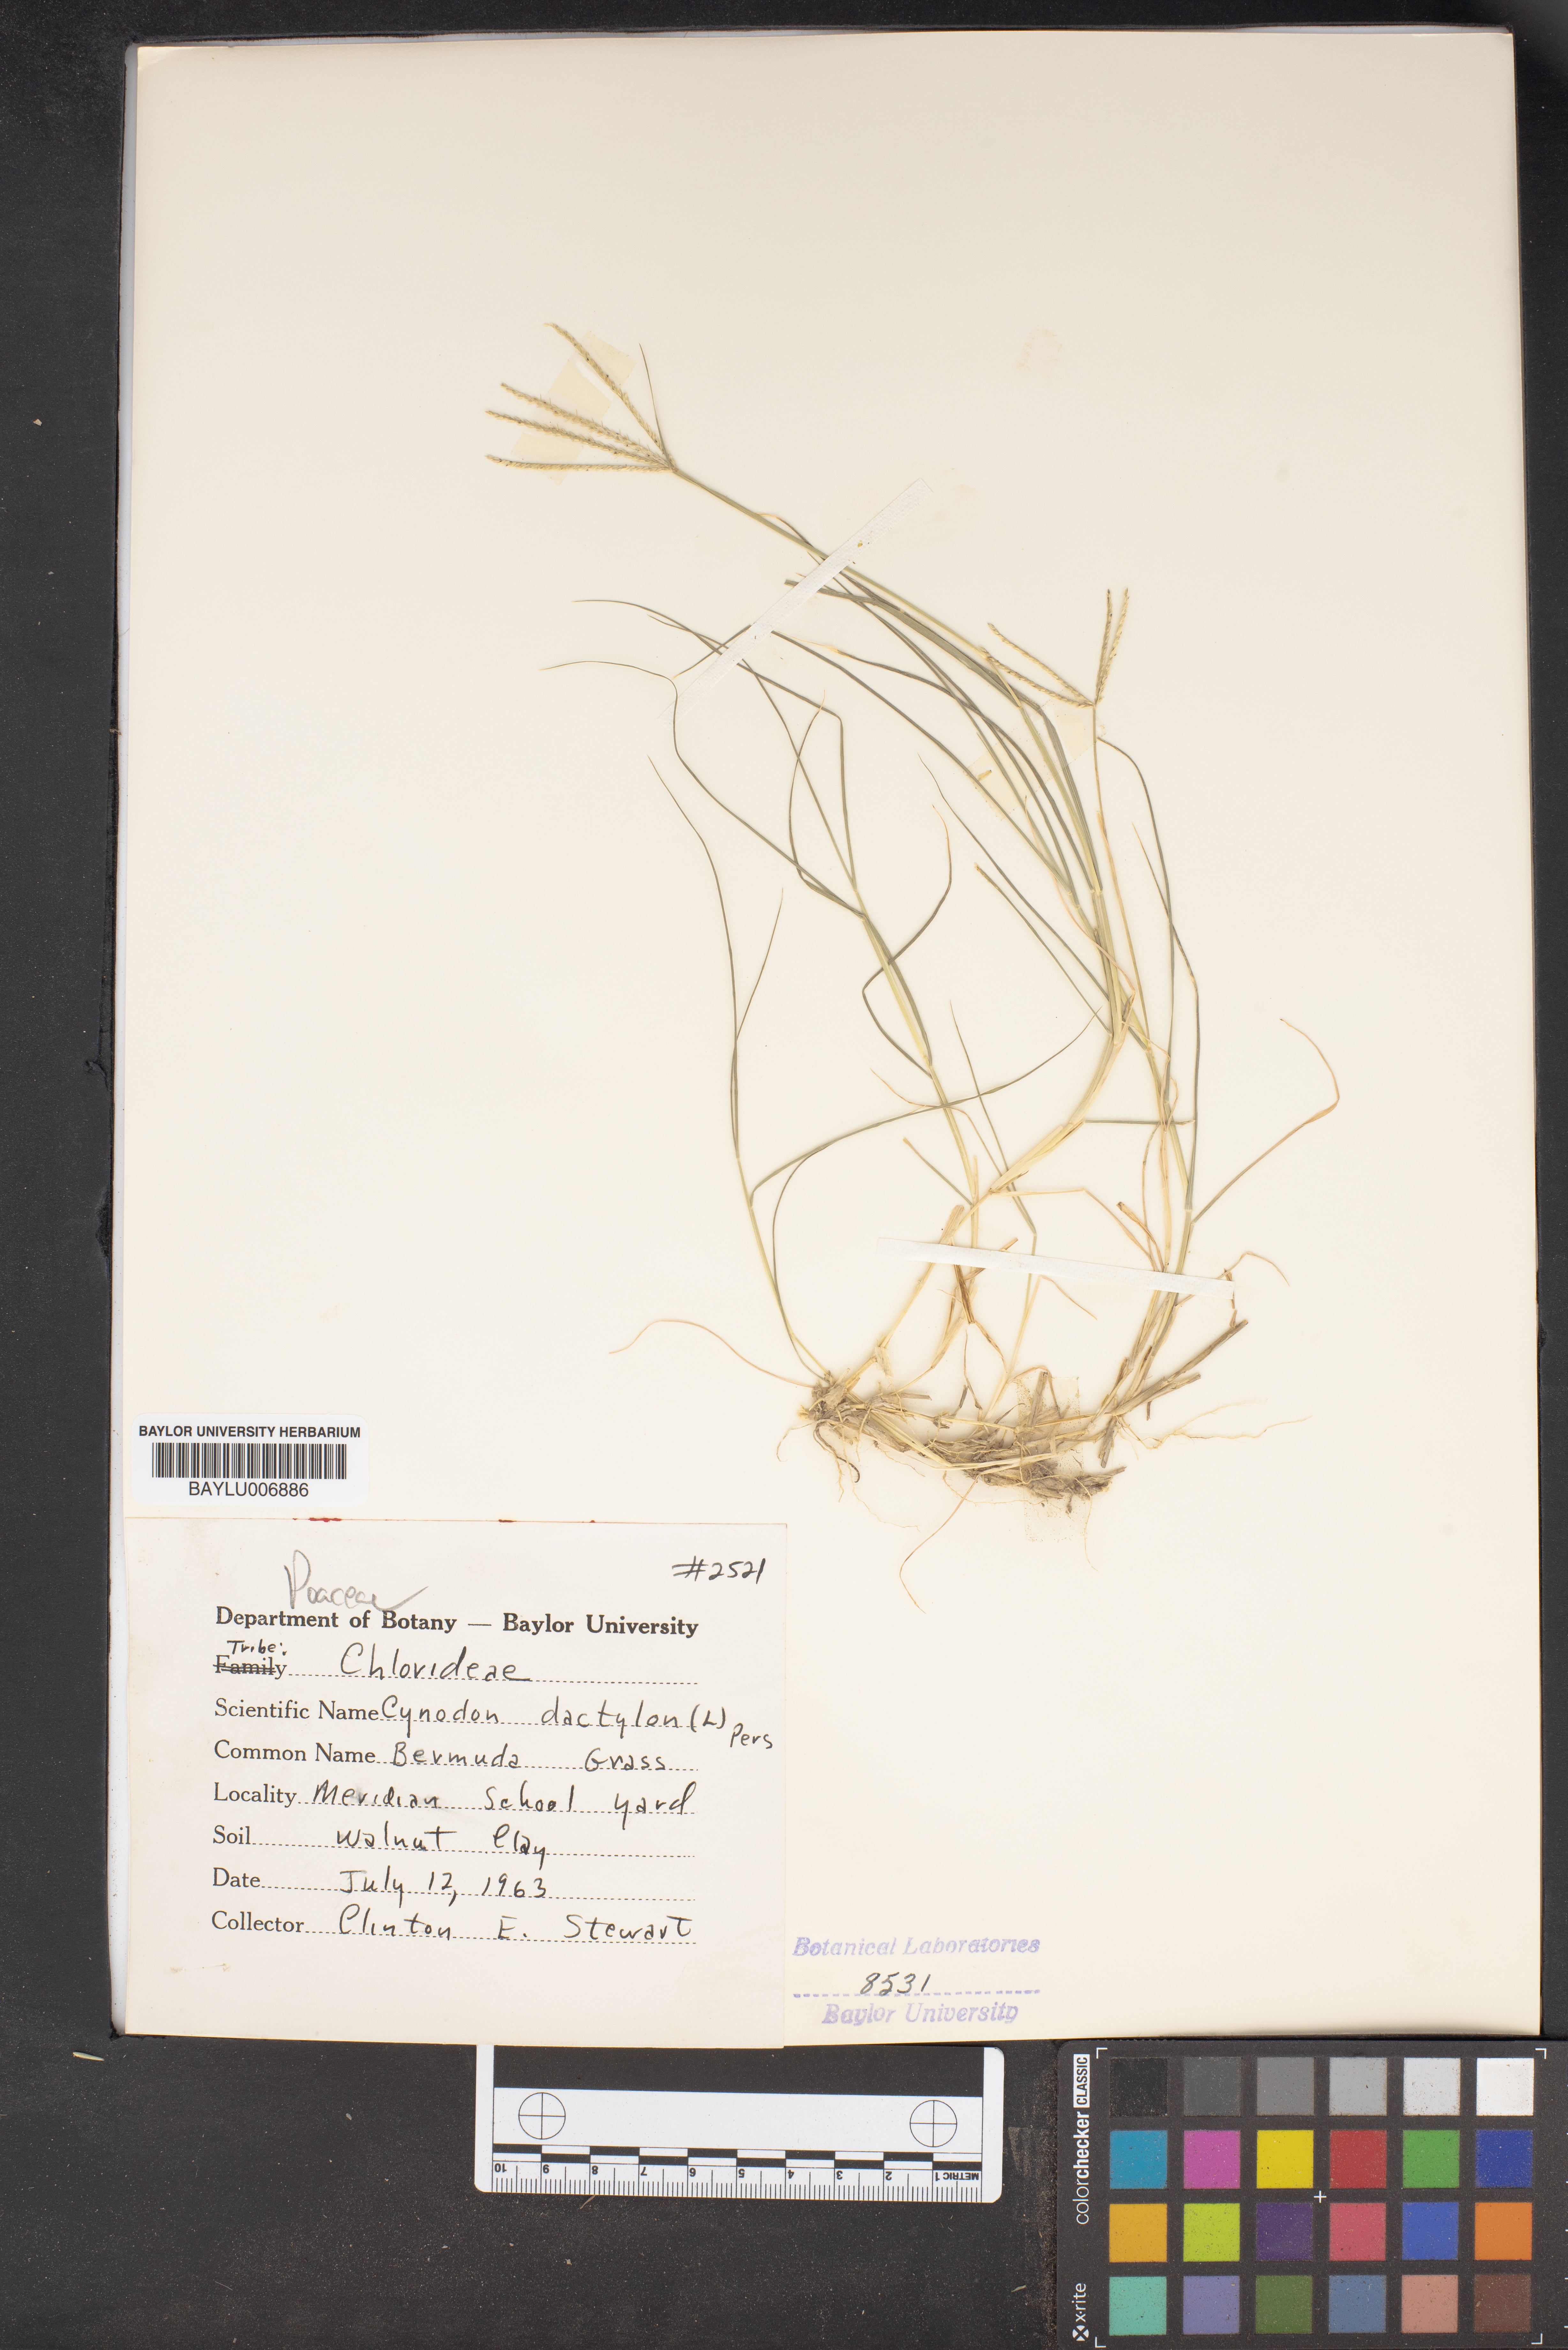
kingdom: Plantae
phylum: Tracheophyta
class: Liliopsida
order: Poales
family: Poaceae
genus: Cynodon
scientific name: Cynodon dactylon
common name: Bermuda grass
